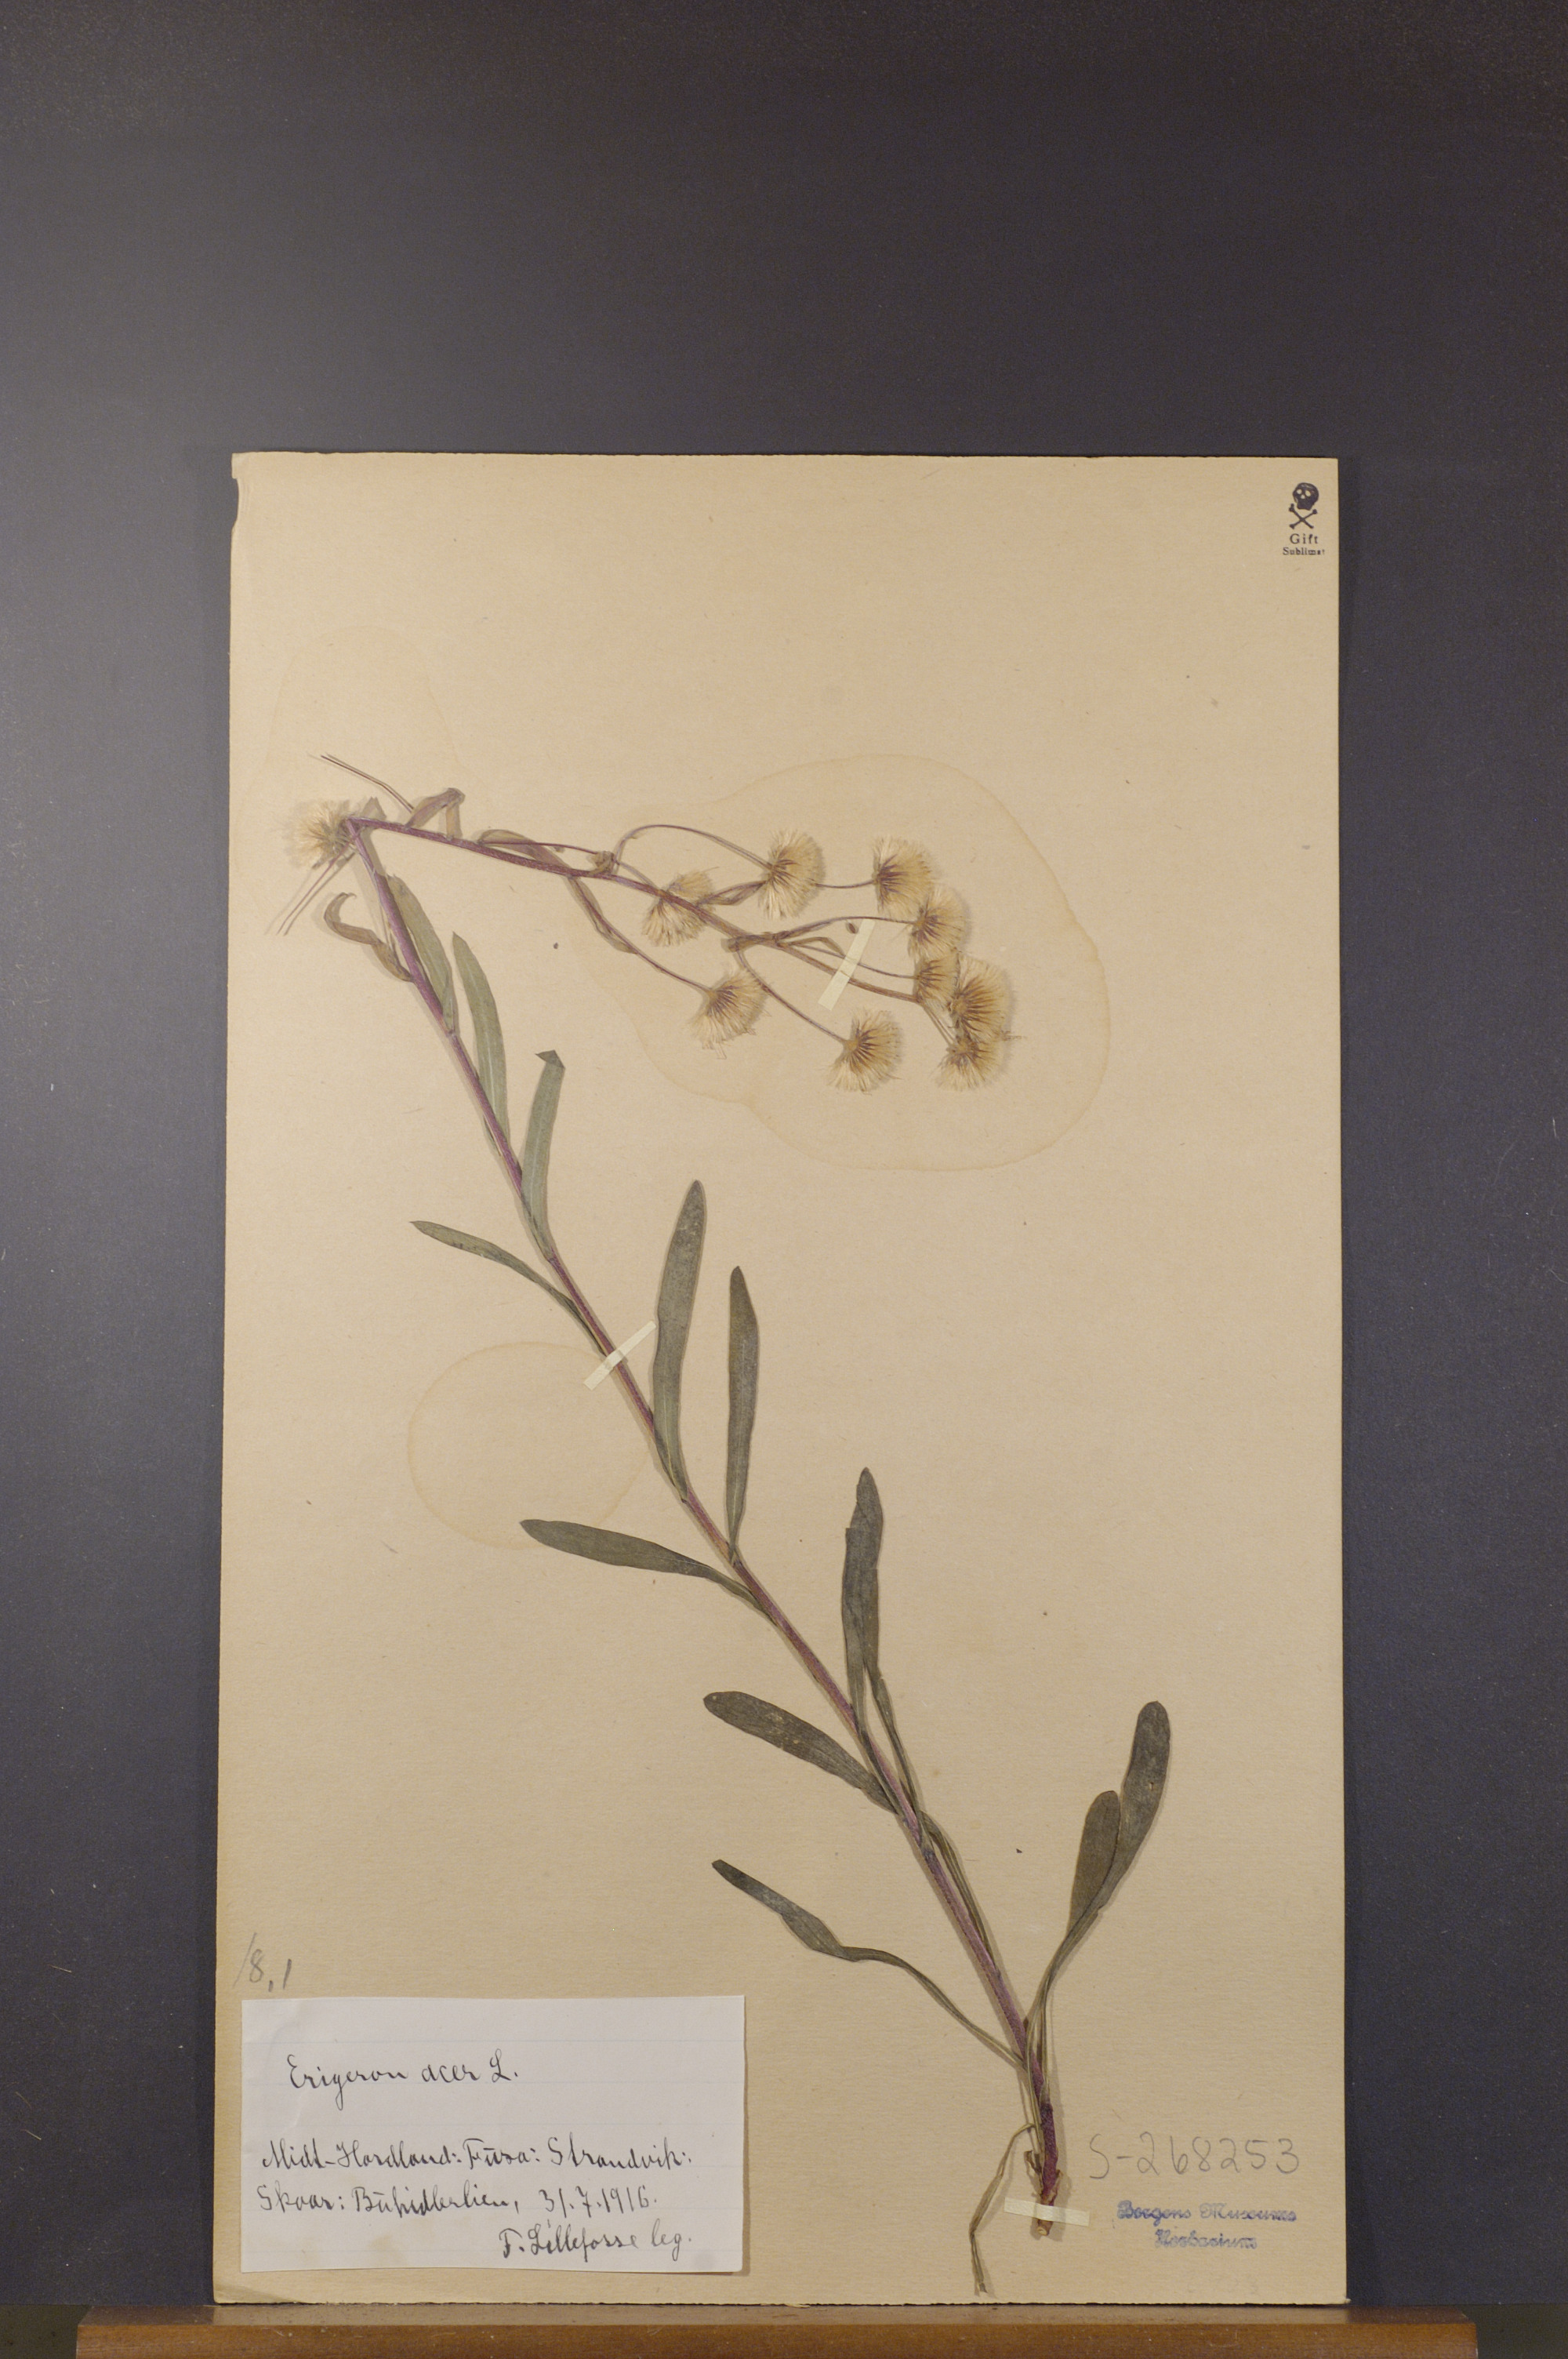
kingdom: Plantae
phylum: Tracheophyta
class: Magnoliopsida
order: Asterales
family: Asteraceae
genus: Erigeron
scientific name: Erigeron acris
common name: Blue fleabane
